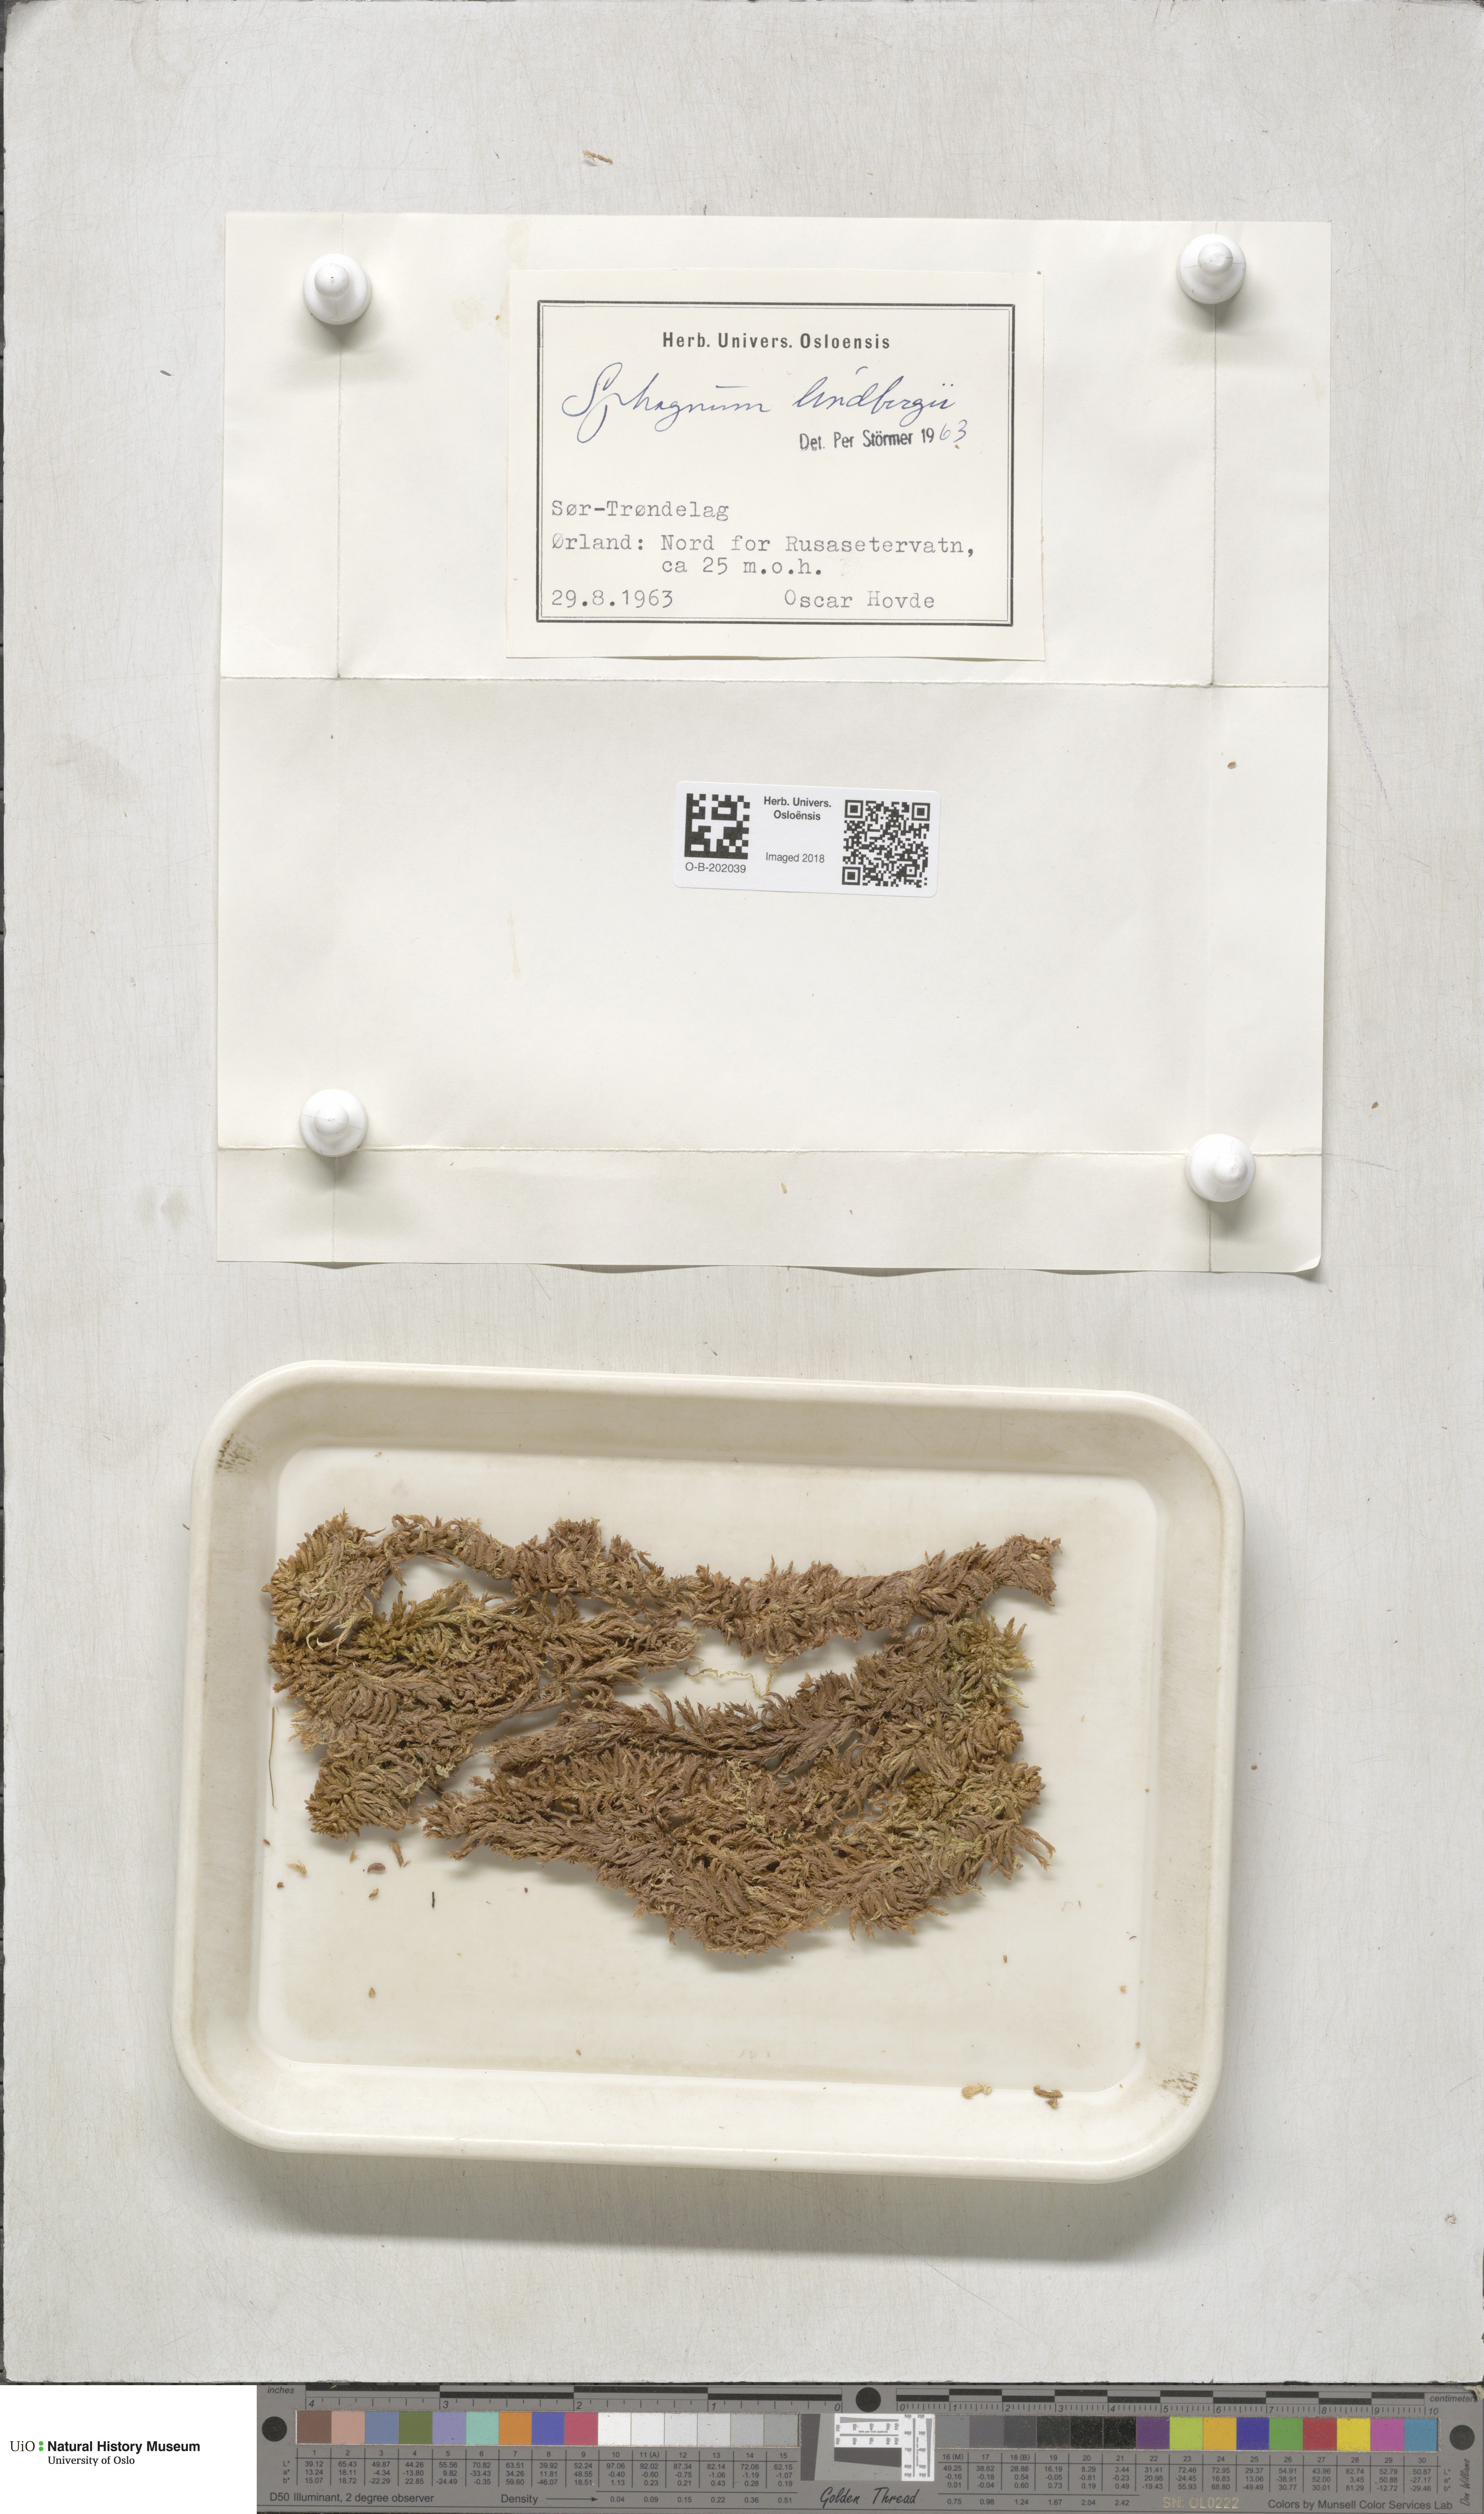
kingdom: Plantae
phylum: Bryophyta
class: Sphagnopsida
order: Sphagnales
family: Sphagnaceae
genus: Sphagnum
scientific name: Sphagnum lindbergii
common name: Lindberg's peat moss
